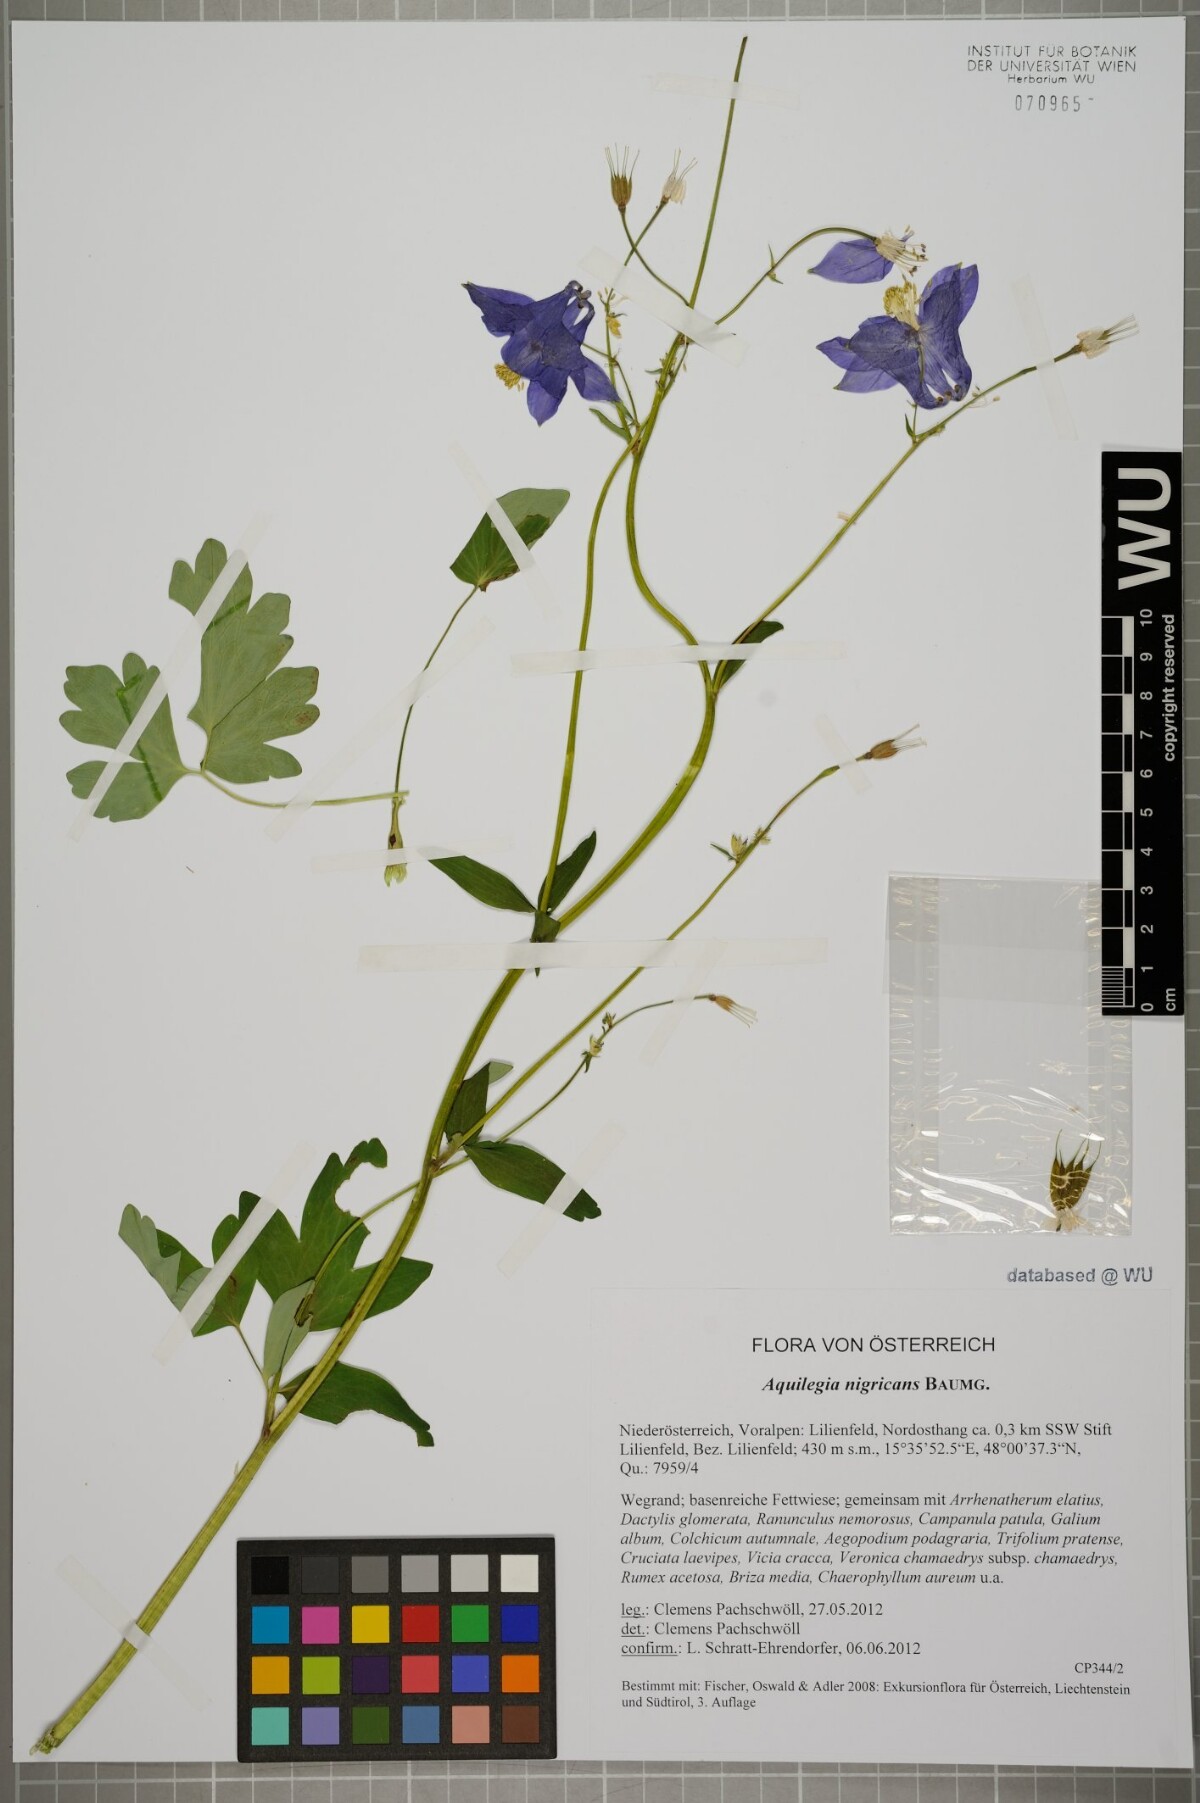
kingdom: Plantae
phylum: Tracheophyta
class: Magnoliopsida
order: Ranunculales
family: Ranunculaceae
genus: Aquilegia
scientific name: Aquilegia nigricans
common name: Bulgarian columbine
